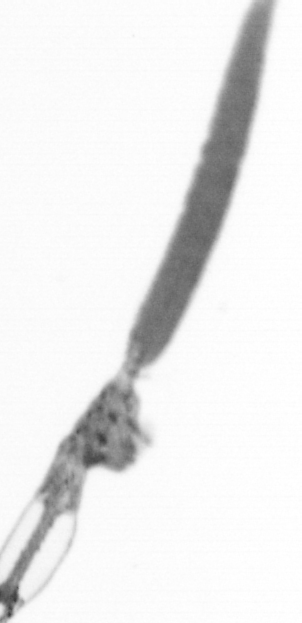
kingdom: Animalia
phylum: Arthropoda
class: Copepoda
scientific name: Copepoda
